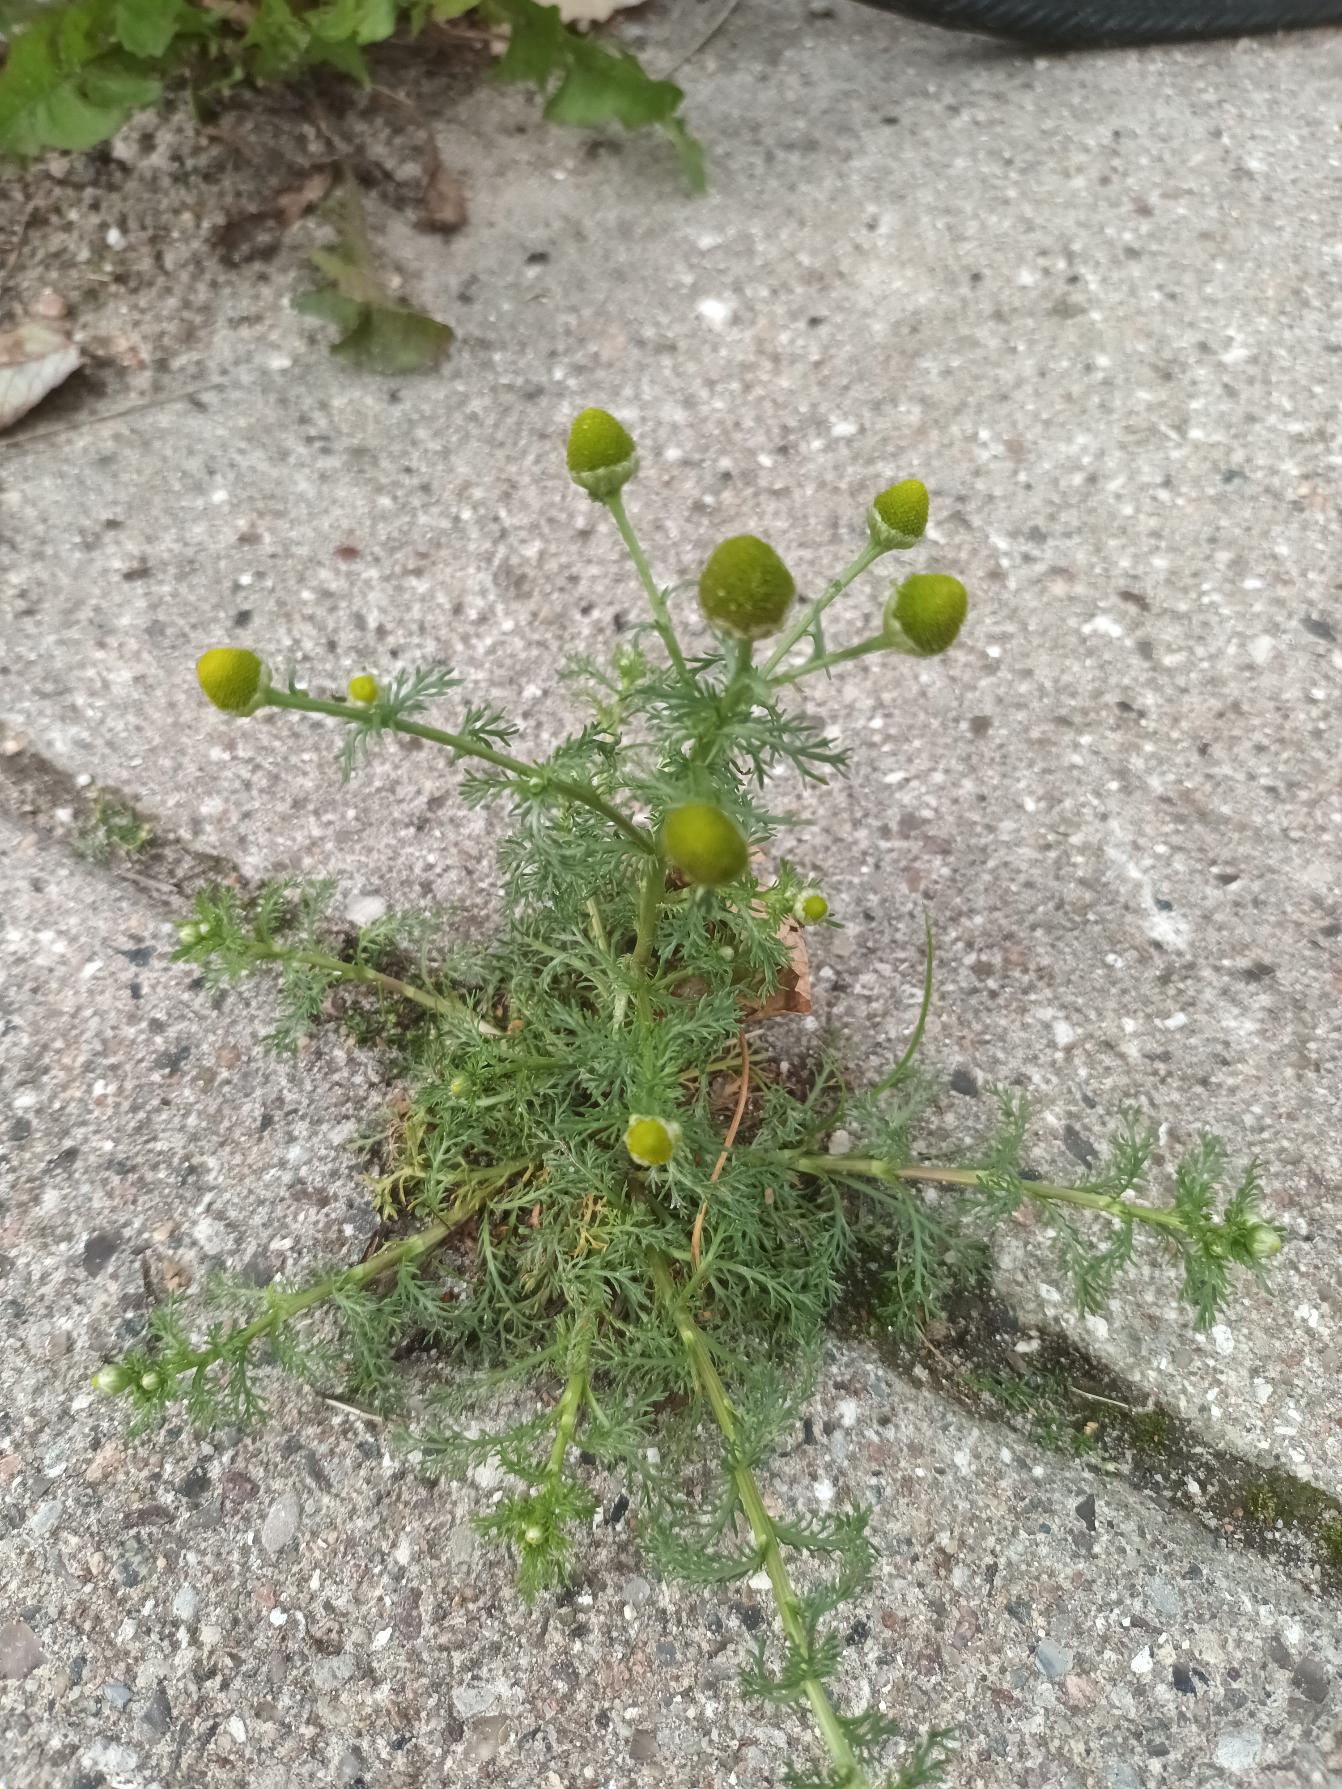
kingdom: Plantae
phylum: Tracheophyta
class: Magnoliopsida
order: Asterales
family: Asteraceae
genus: Matricaria
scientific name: Matricaria discoidea
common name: Skive-kamille
